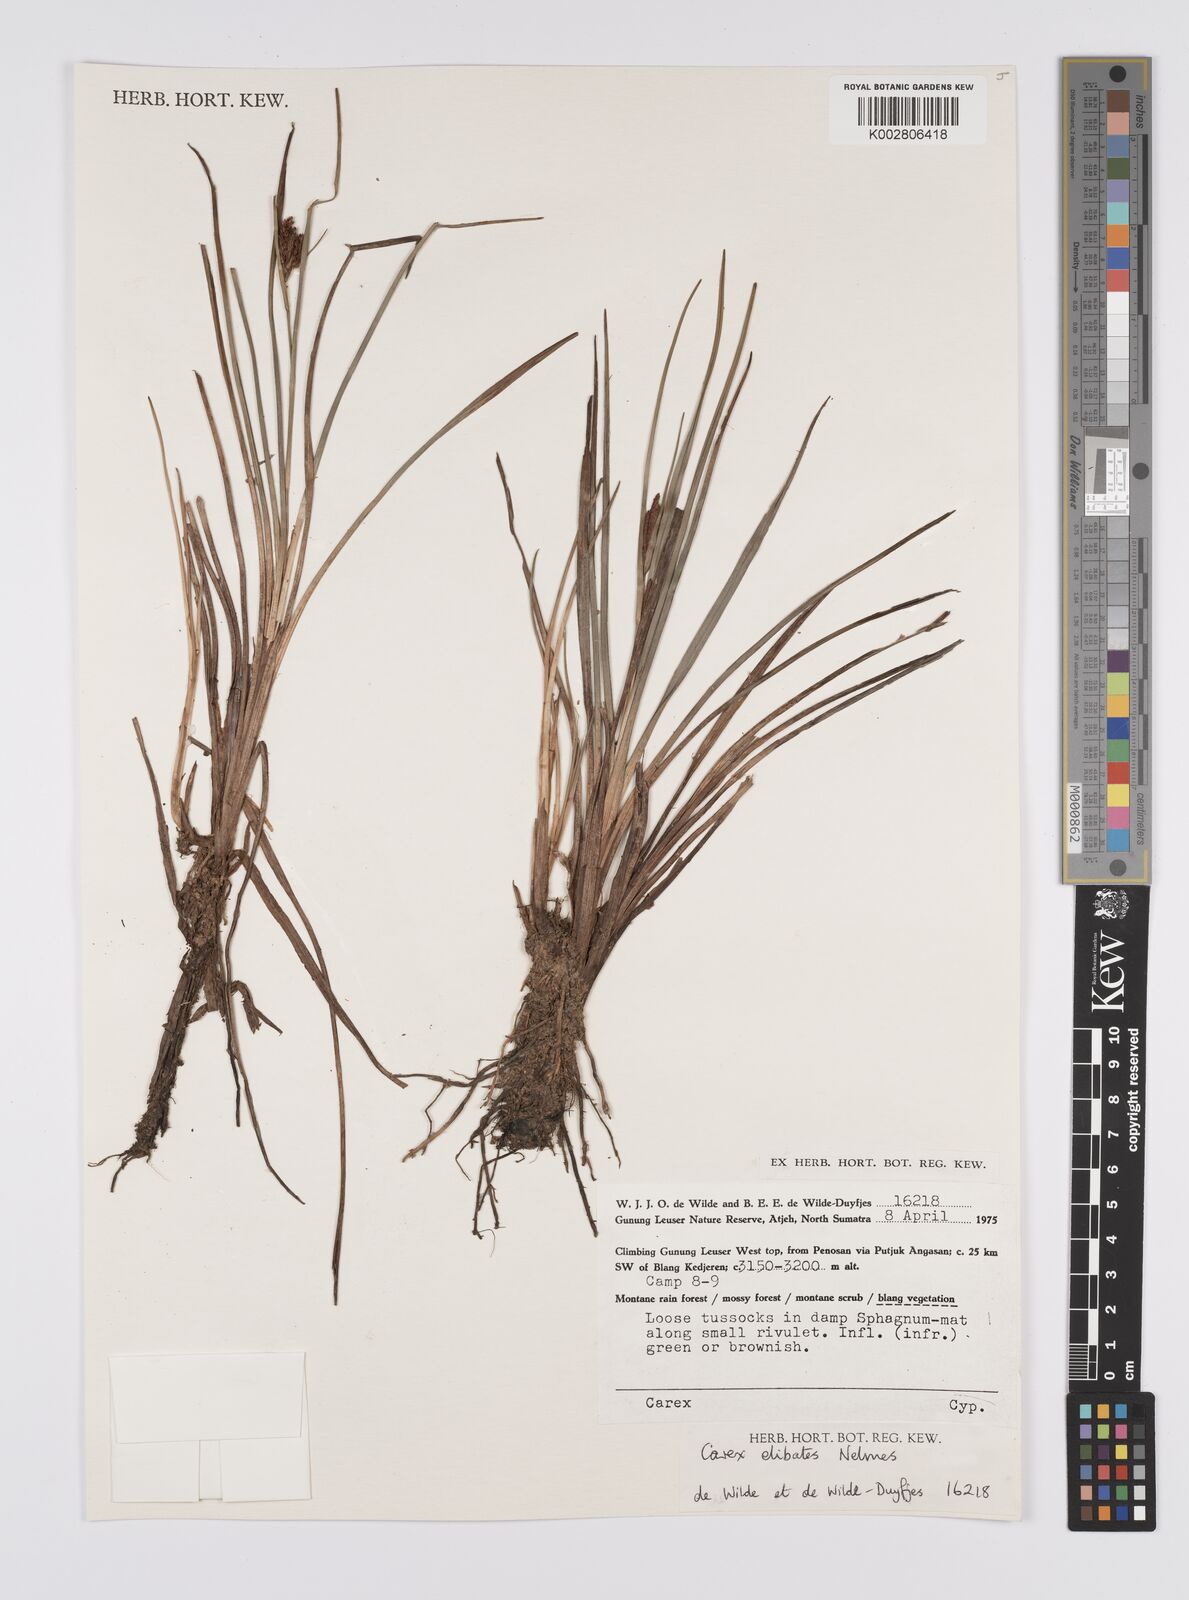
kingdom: Plantae
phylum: Tracheophyta
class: Liliopsida
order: Poales
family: Cyperaceae
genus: Carex
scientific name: Carex maculata
